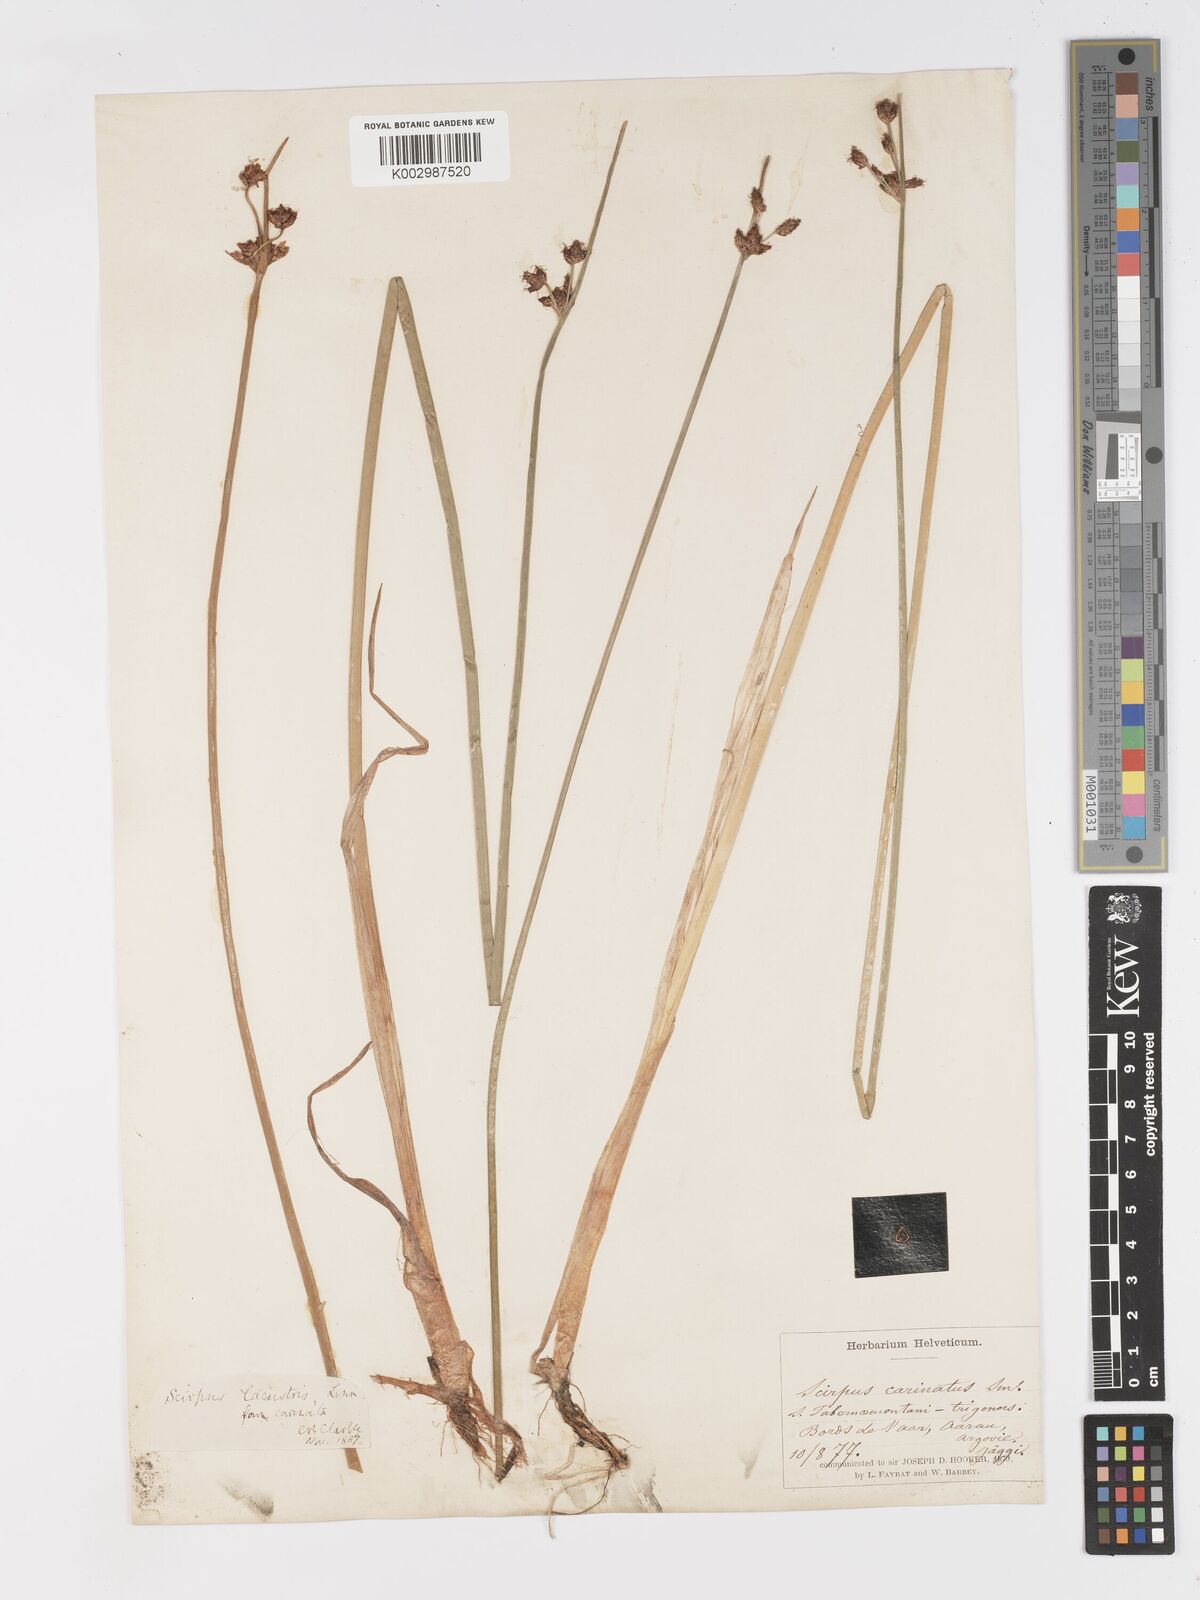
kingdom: Plantae
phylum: Tracheophyta
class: Liliopsida
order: Poales
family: Cyperaceae
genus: Schoenoplectus
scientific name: Schoenoplectus lacustris
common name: Common club-rush
